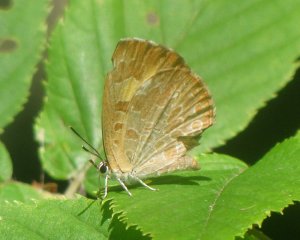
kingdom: Animalia
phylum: Arthropoda
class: Insecta
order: Lepidoptera
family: Lycaenidae
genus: Feniseca
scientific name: Feniseca tarquinius
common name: Harvester
